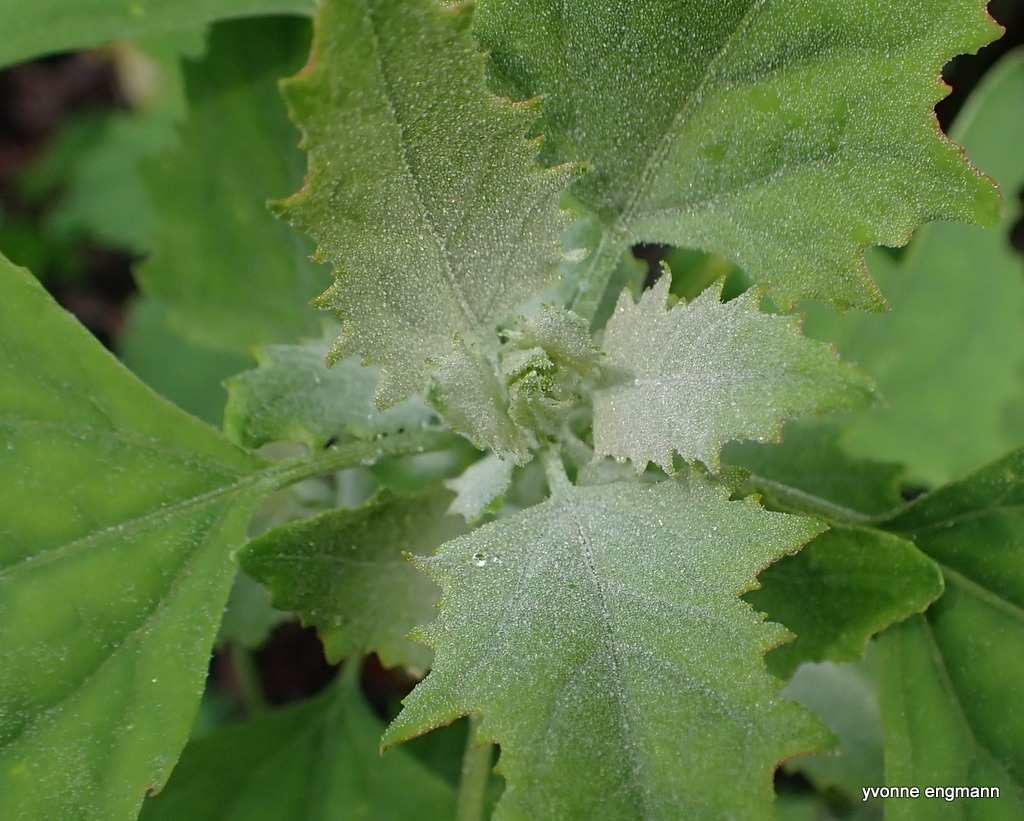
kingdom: Plantae
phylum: Tracheophyta
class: Magnoliopsida
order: Caryophyllales
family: Amaranthaceae
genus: Chenopodium
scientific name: Chenopodium album
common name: Hvidmelet gåsefod
